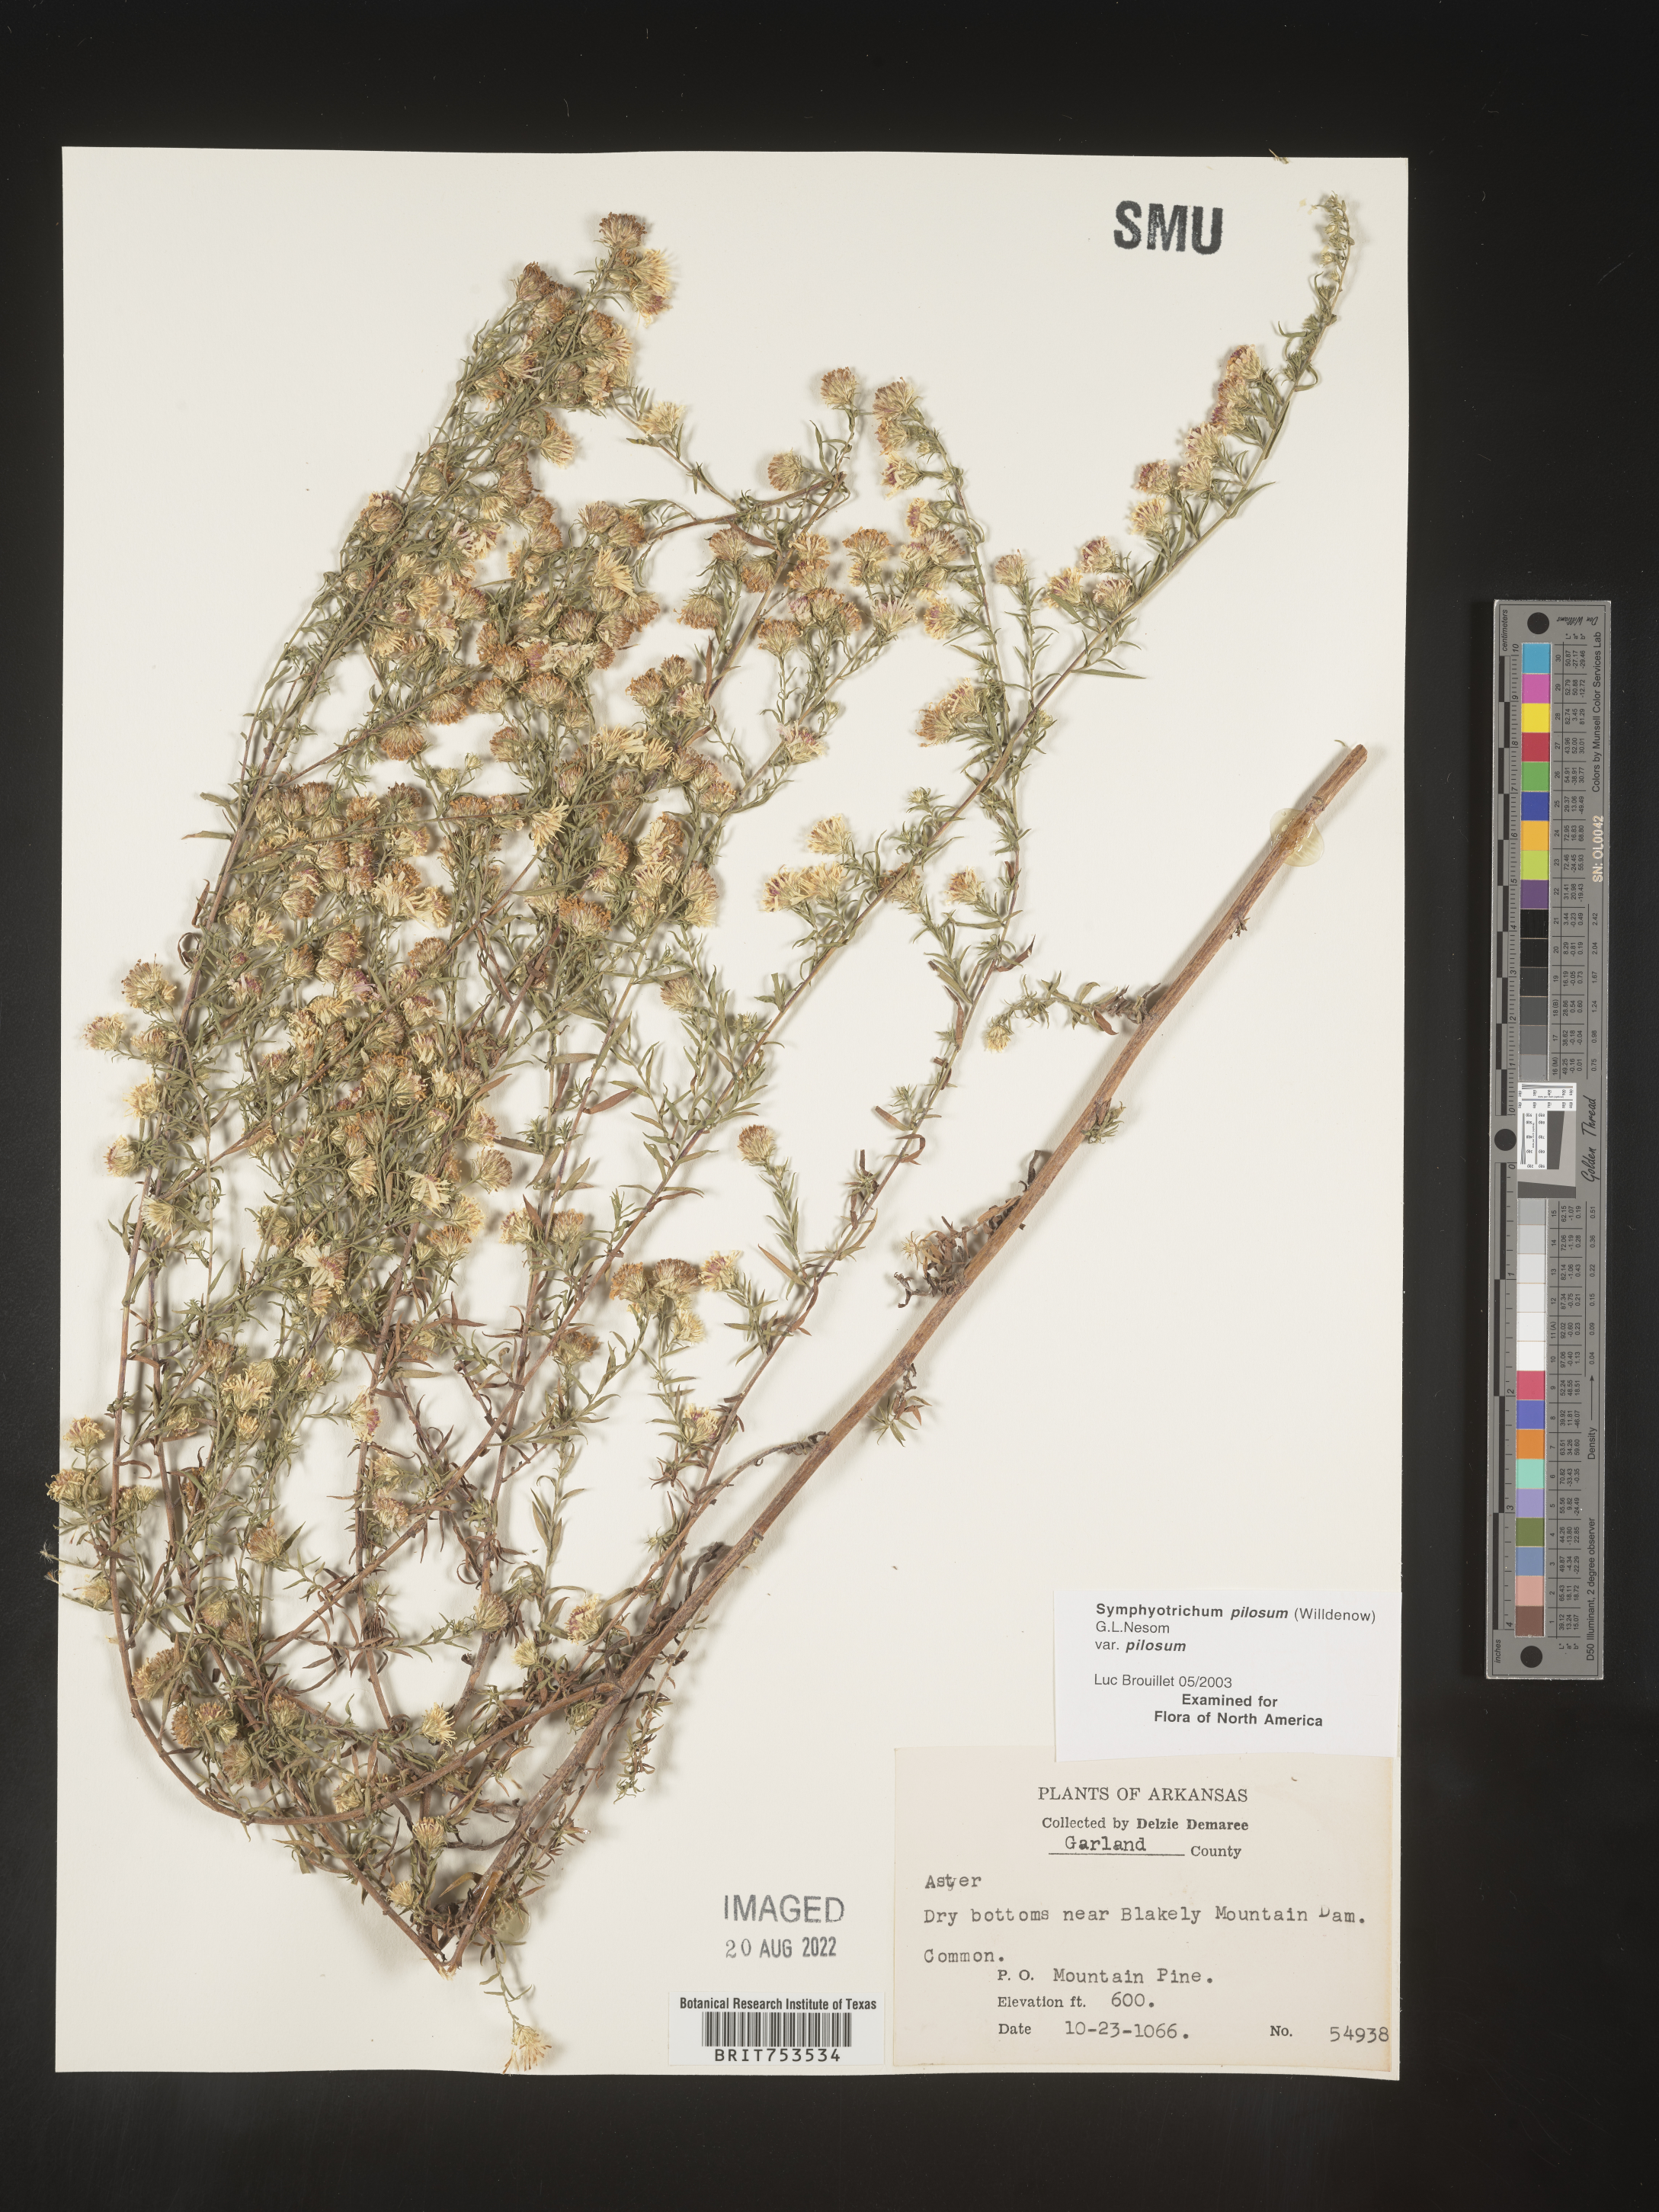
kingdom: Plantae
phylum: Tracheophyta
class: Magnoliopsida
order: Asterales
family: Asteraceae
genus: Symphyotrichum
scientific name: Symphyotrichum pilosum
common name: Awl aster
